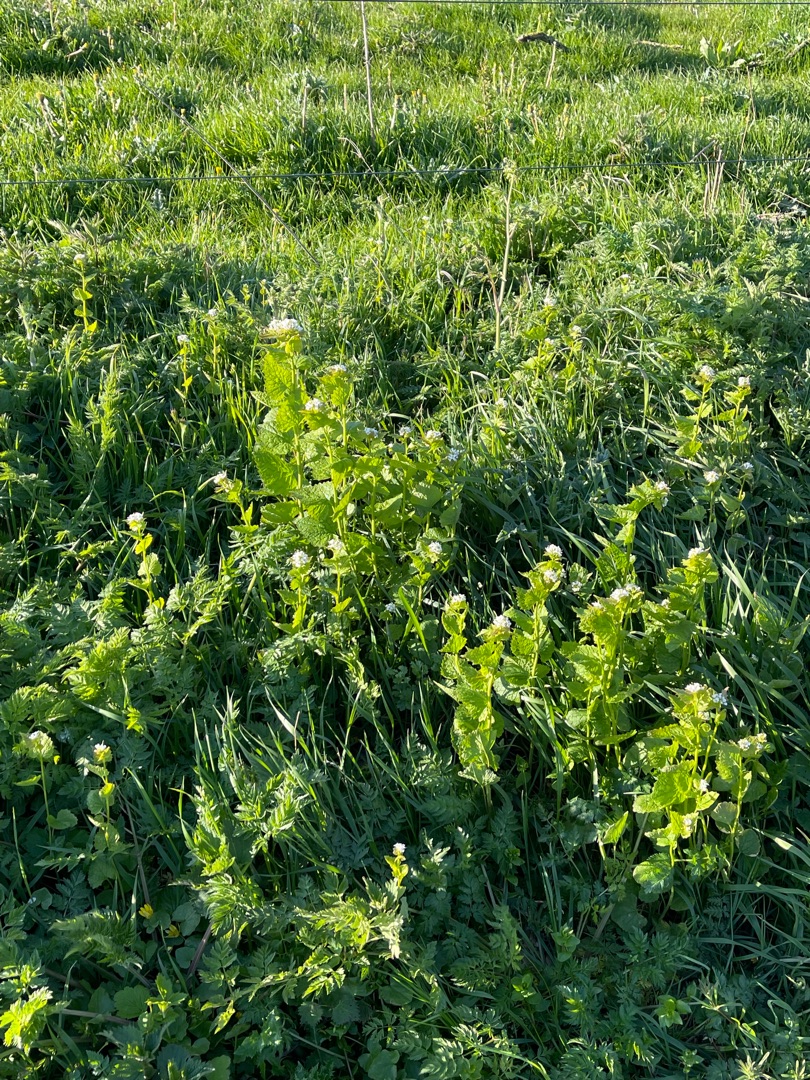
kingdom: Plantae
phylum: Tracheophyta
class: Magnoliopsida
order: Brassicales
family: Brassicaceae
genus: Alliaria
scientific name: Alliaria petiolata
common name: Løgkarse
